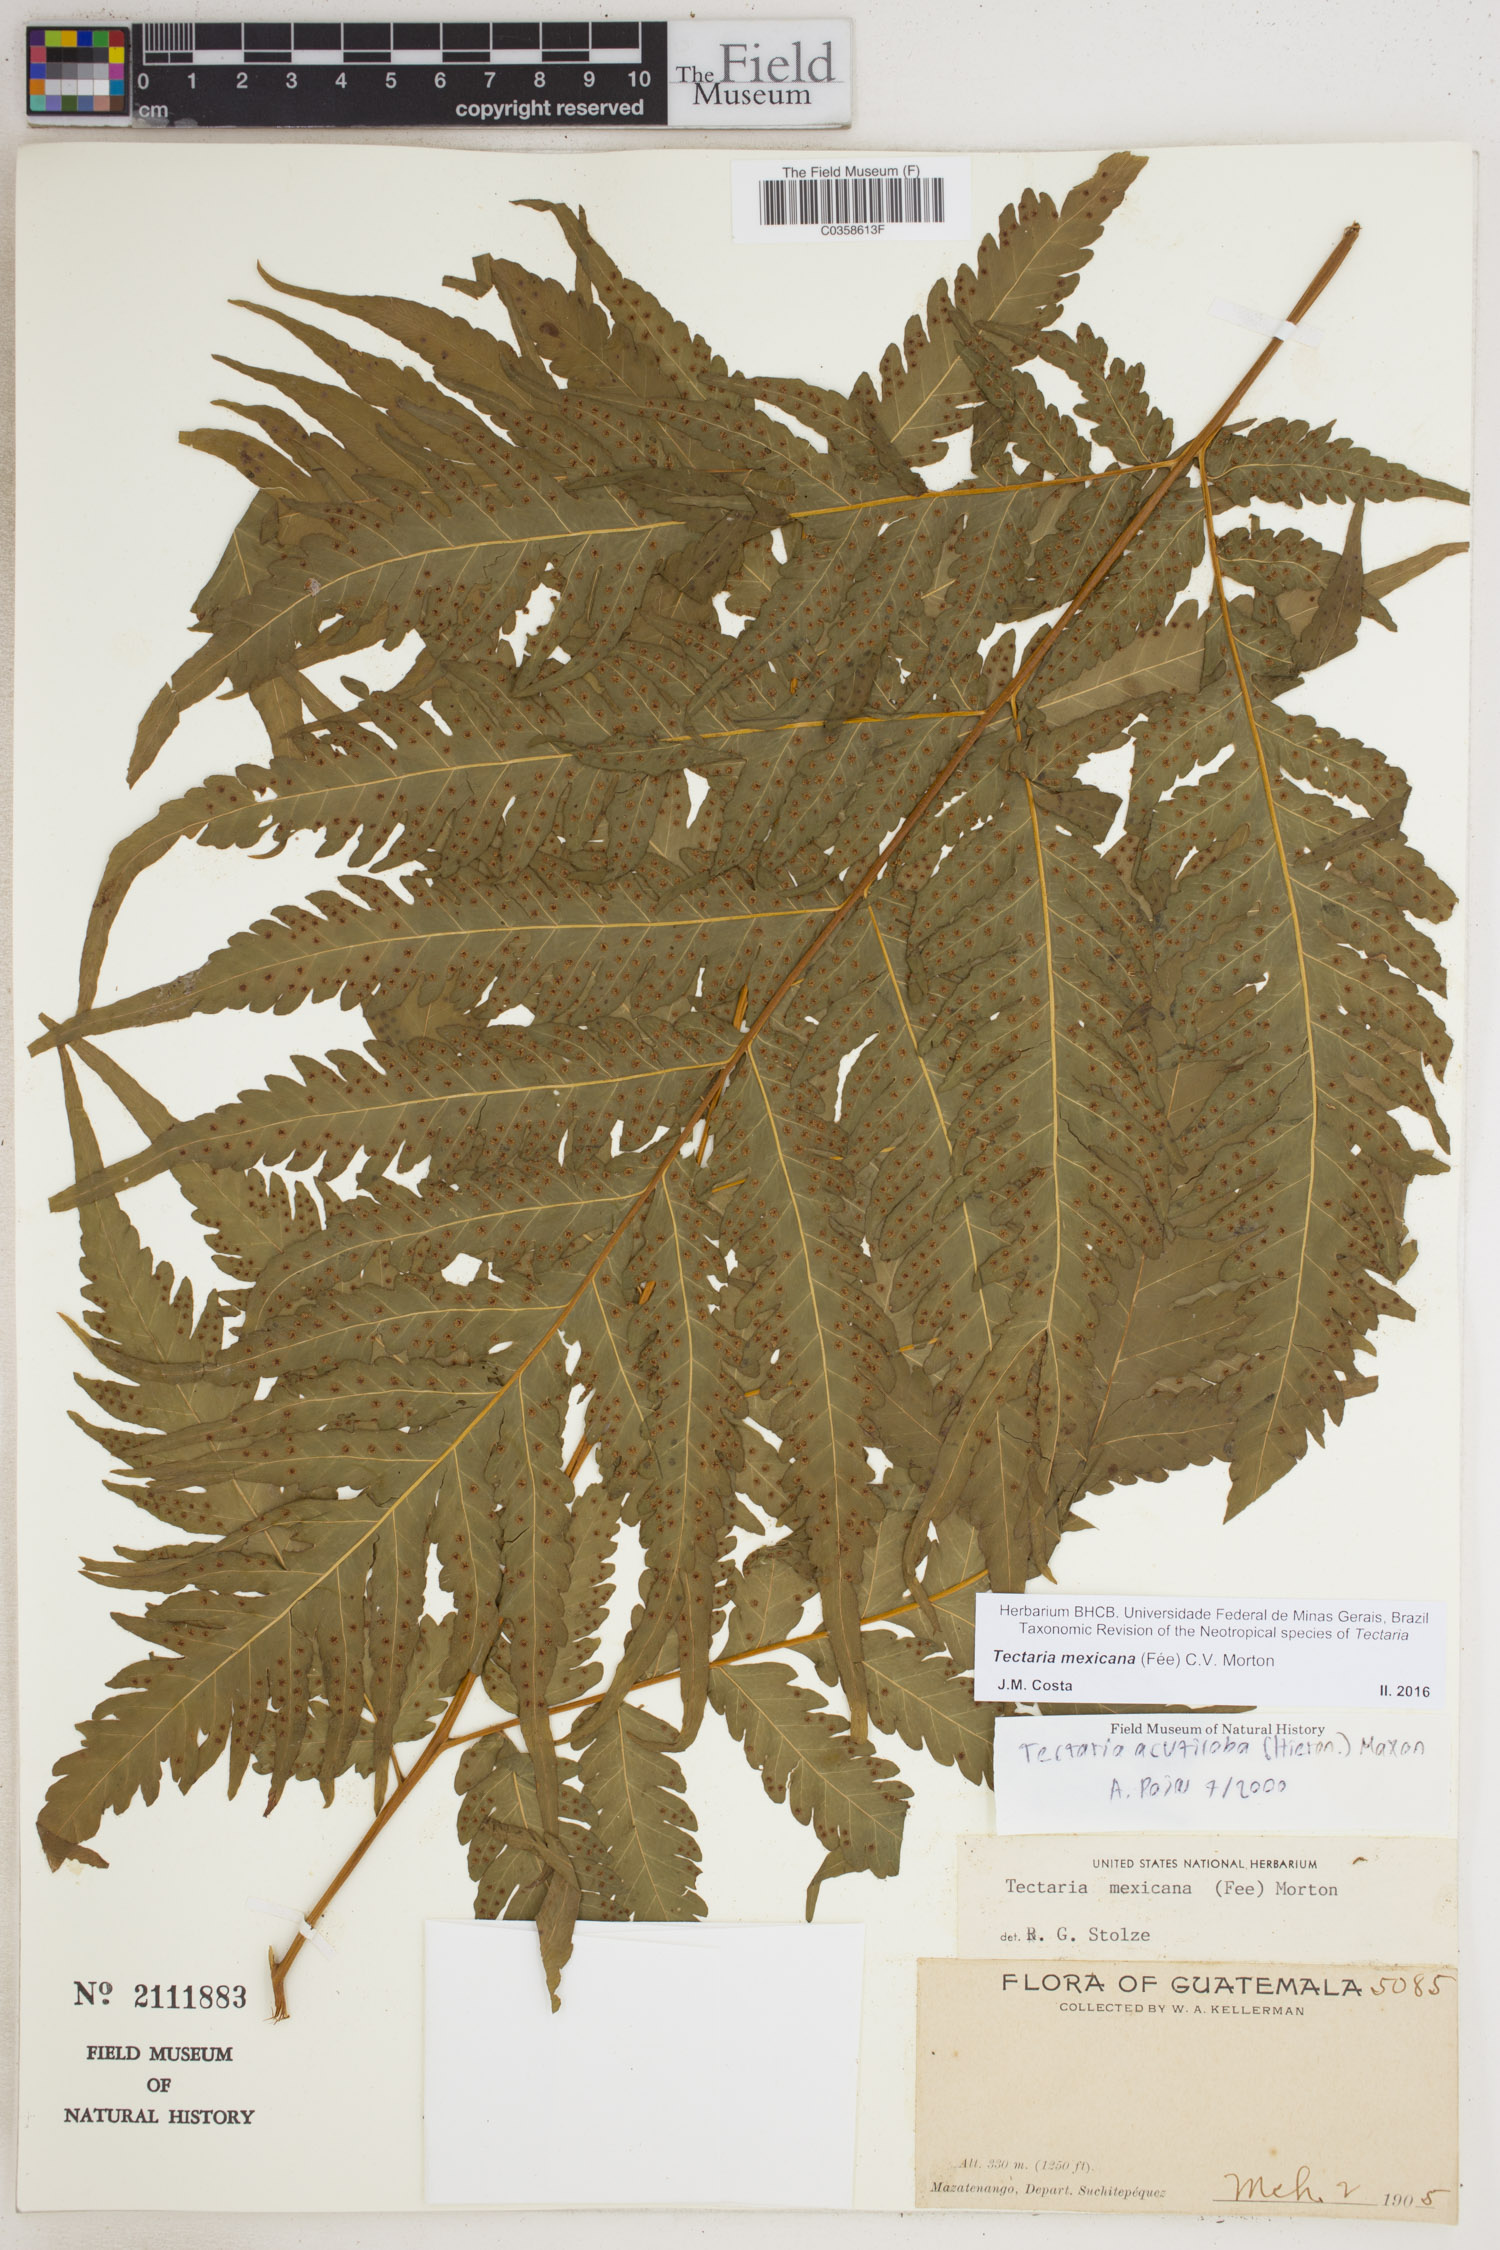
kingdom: Plantae
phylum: Tracheophyta
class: Polypodiopsida
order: Polypodiales
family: Tectariaceae
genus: Tectaria
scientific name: Tectaria mexicana
